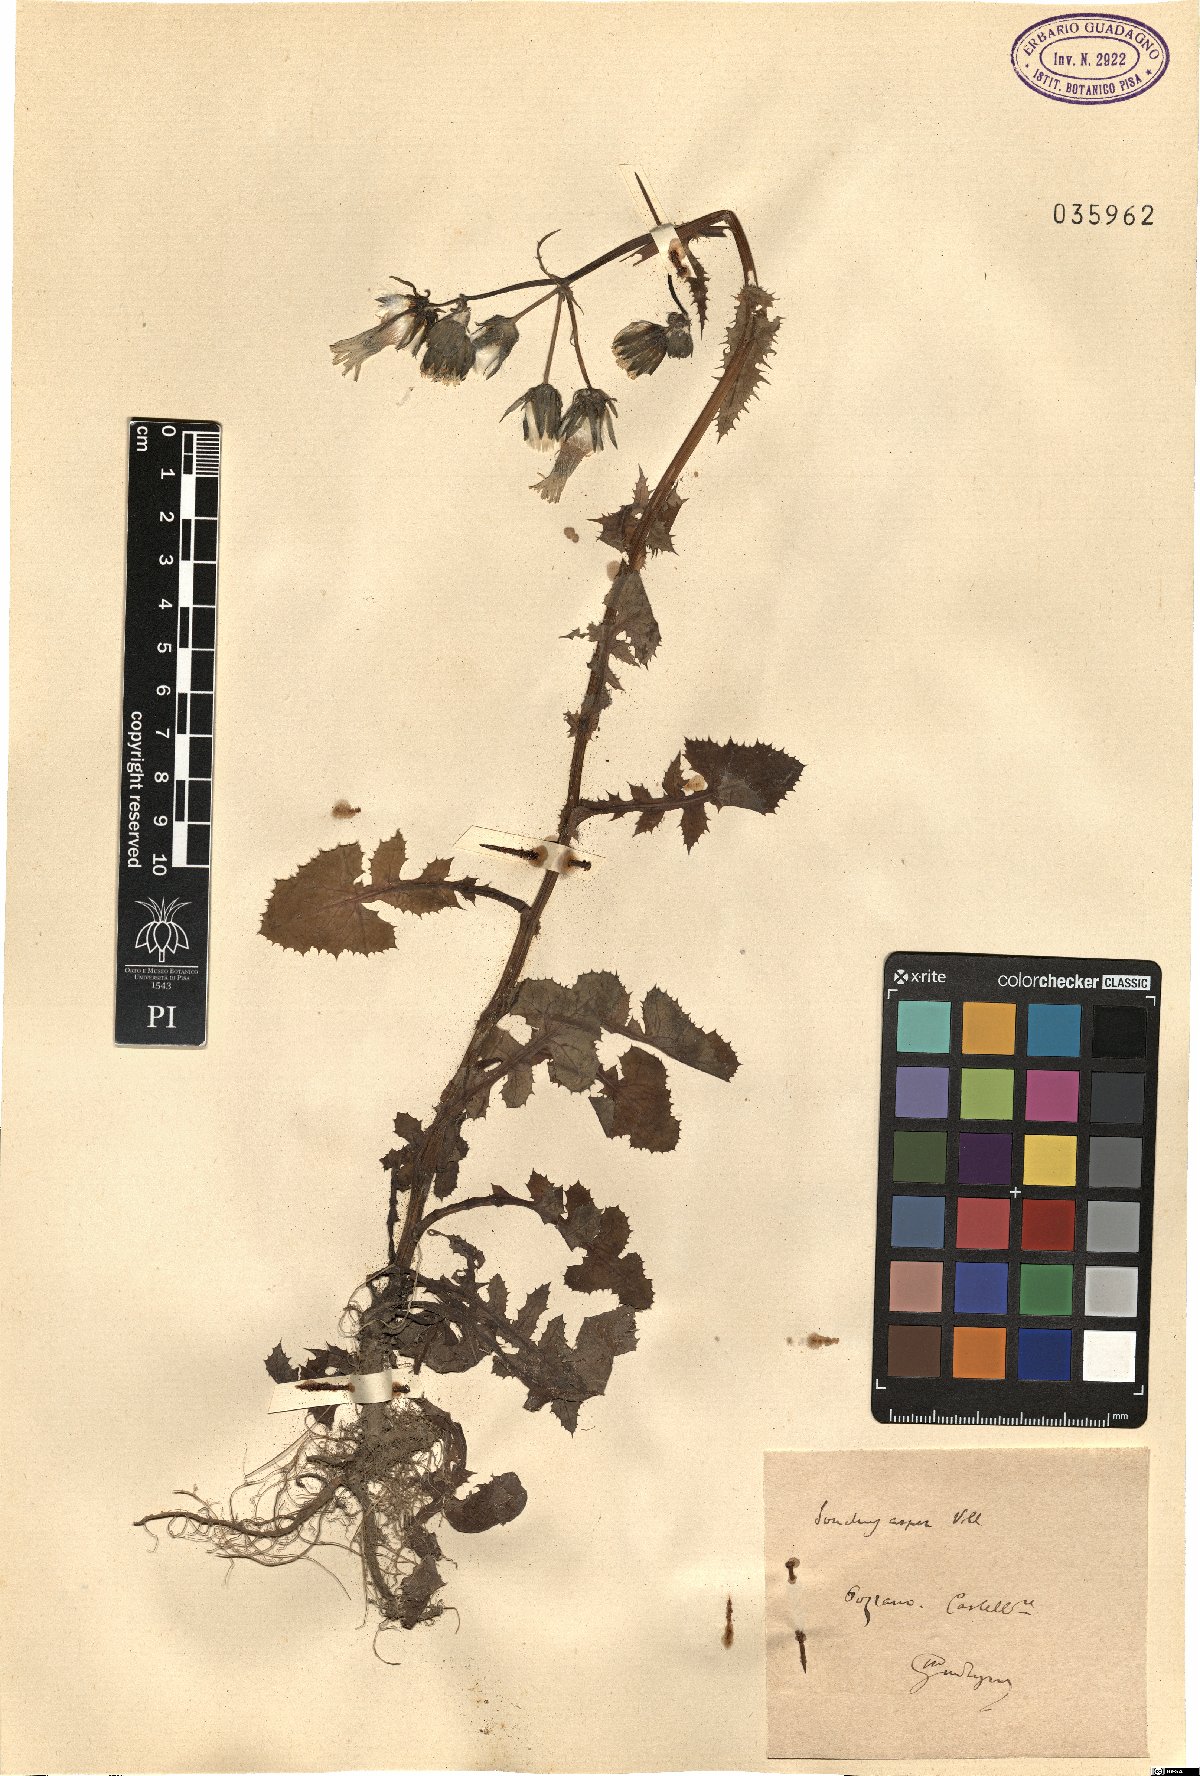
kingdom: Plantae
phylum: Tracheophyta
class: Magnoliopsida
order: Asterales
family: Asteraceae
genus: Sonchus
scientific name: Sonchus asper
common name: Prickly sow-thistle
